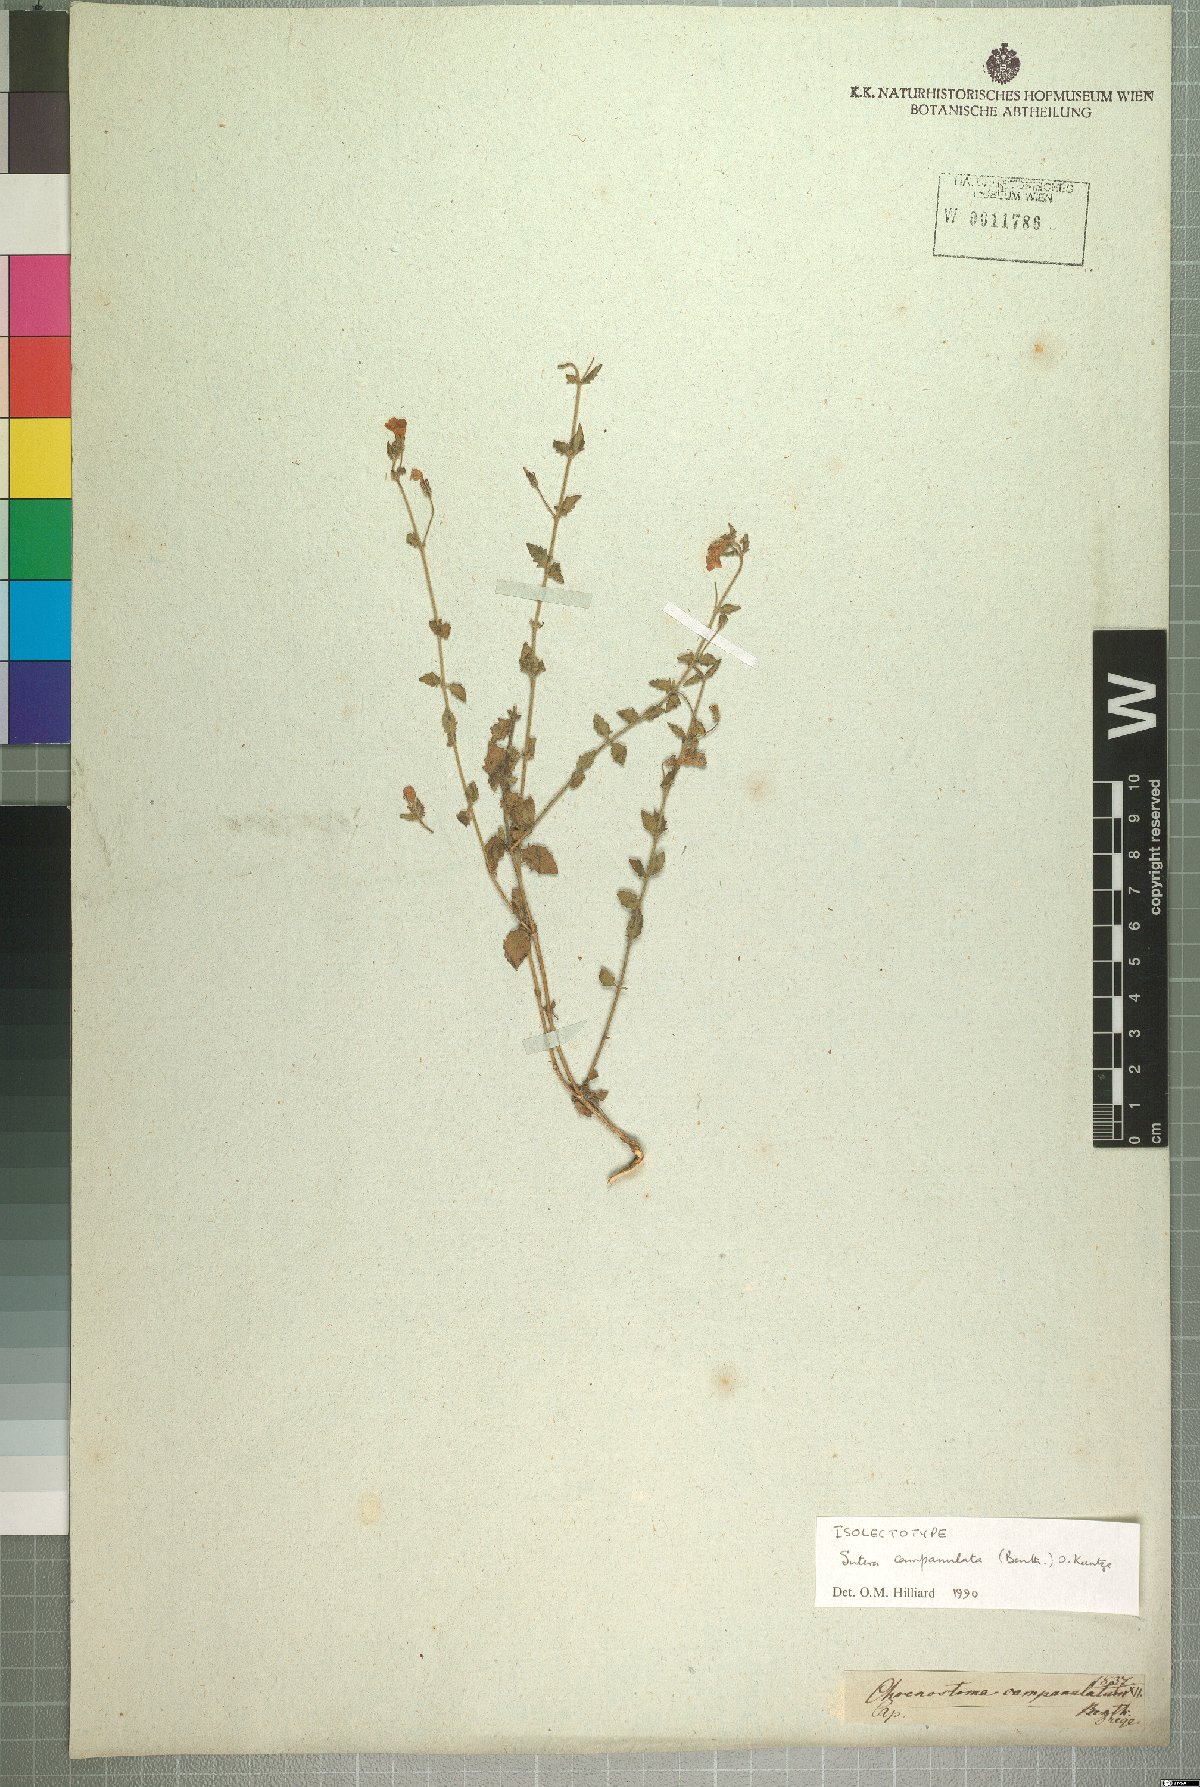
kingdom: Plantae
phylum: Tracheophyta
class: Magnoliopsida
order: Lamiales
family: Scrophulariaceae
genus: Chaenostoma
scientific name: Chaenostoma campanulatum
